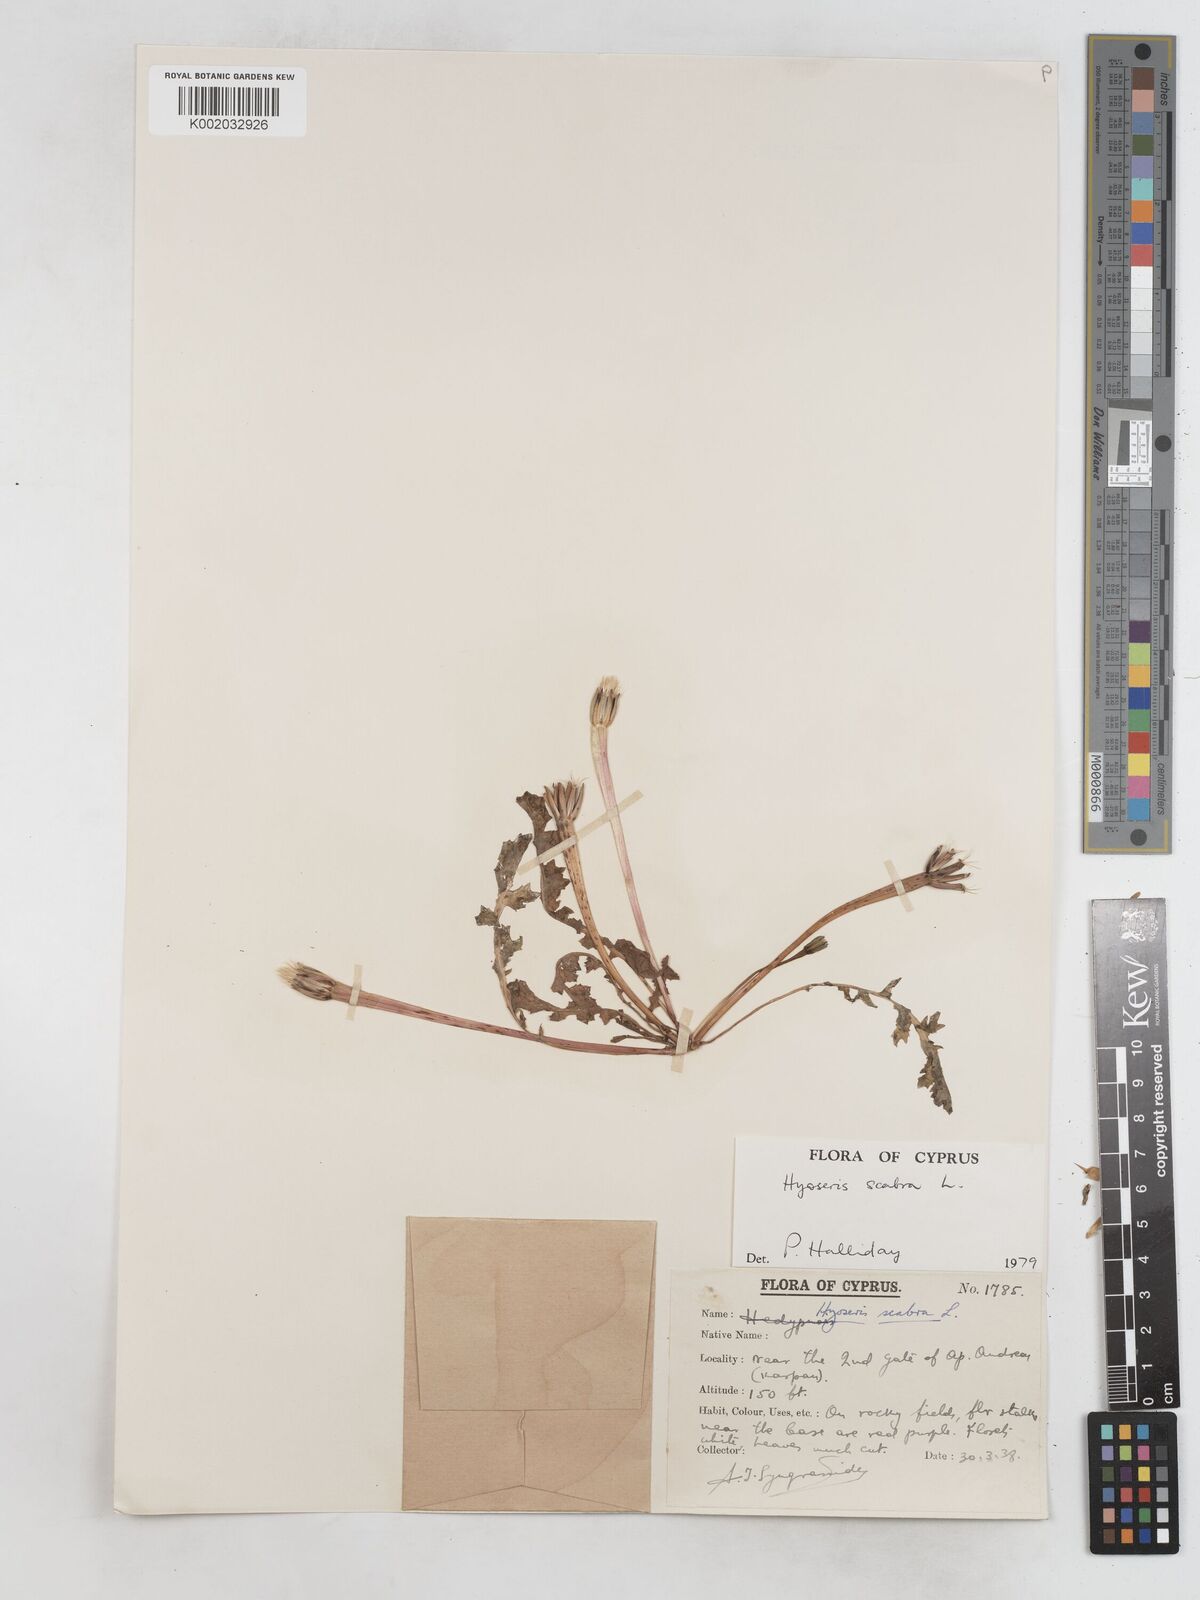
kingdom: Plantae
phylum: Tracheophyta
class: Magnoliopsida
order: Asterales
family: Asteraceae
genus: Hyoseris
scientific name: Hyoseris scabra
